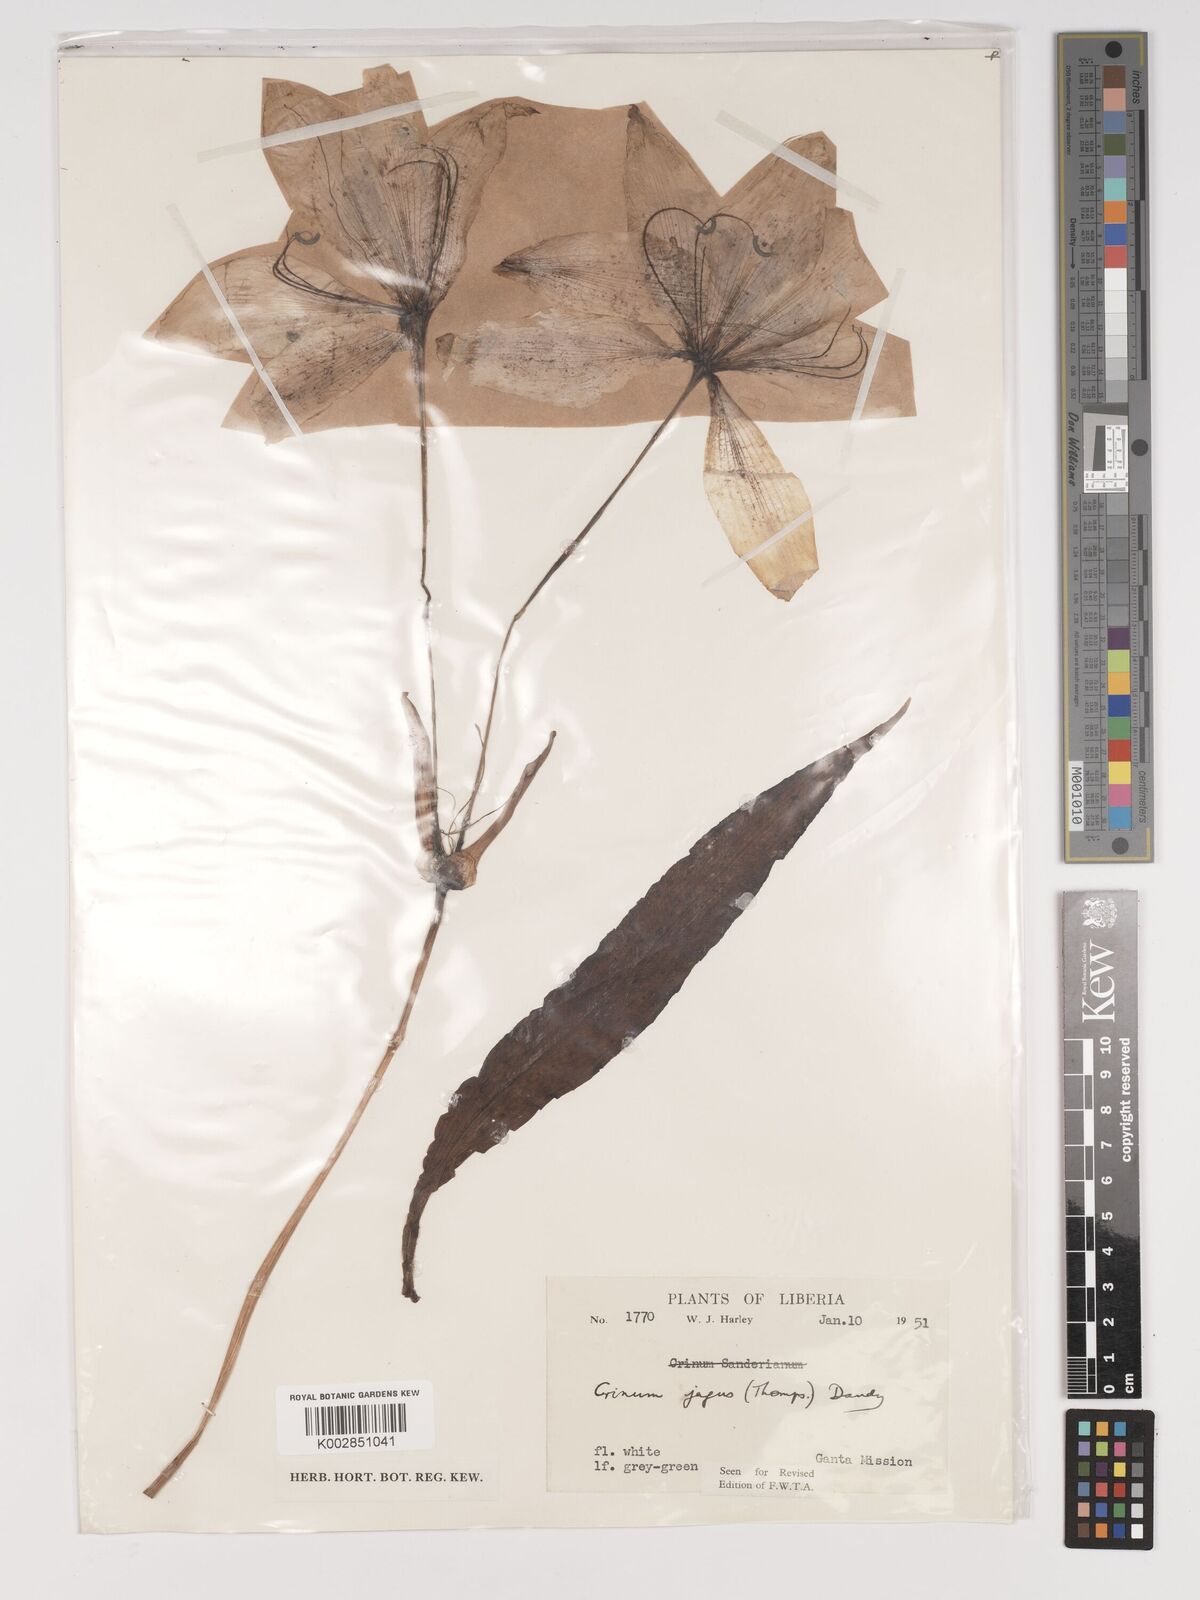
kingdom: Plantae
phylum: Tracheophyta
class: Liliopsida
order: Asparagales
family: Amaryllidaceae
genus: Crinum
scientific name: Crinum jagus
